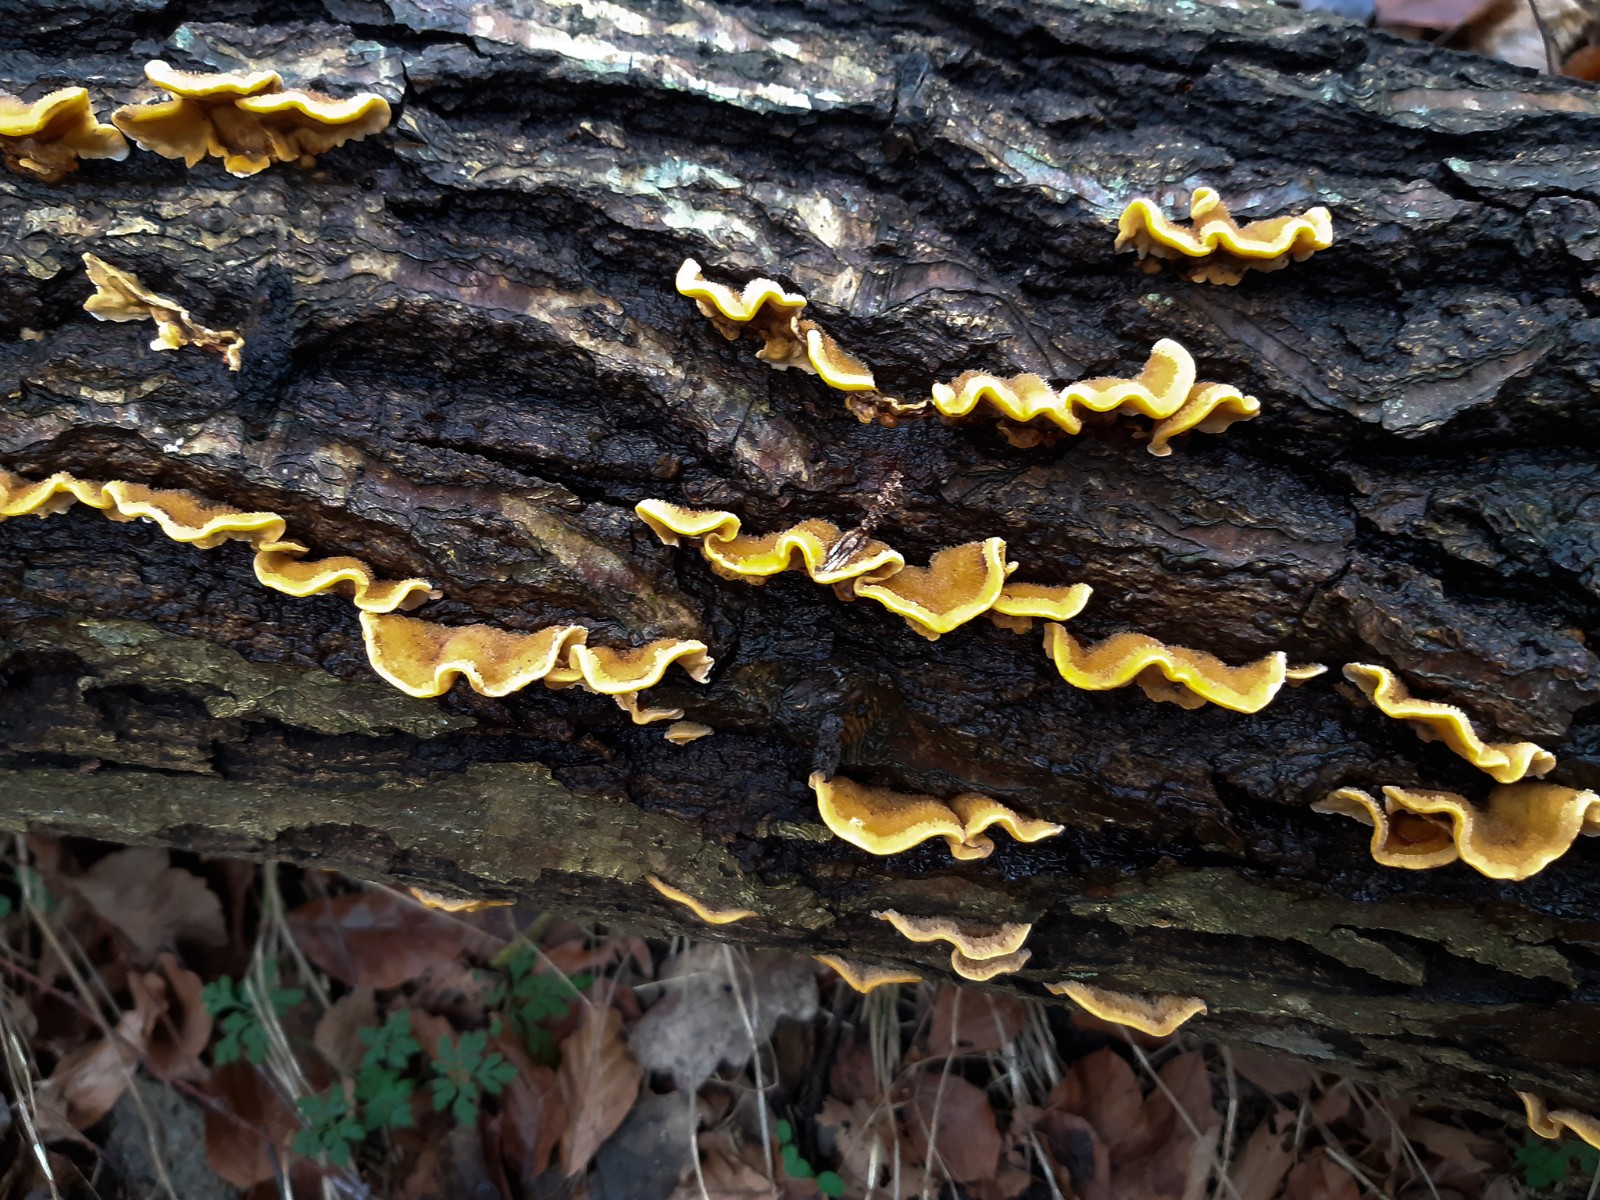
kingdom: Fungi
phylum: Basidiomycota
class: Agaricomycetes
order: Russulales
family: Stereaceae
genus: Stereum
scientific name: Stereum hirsutum
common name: håret lædersvamp
